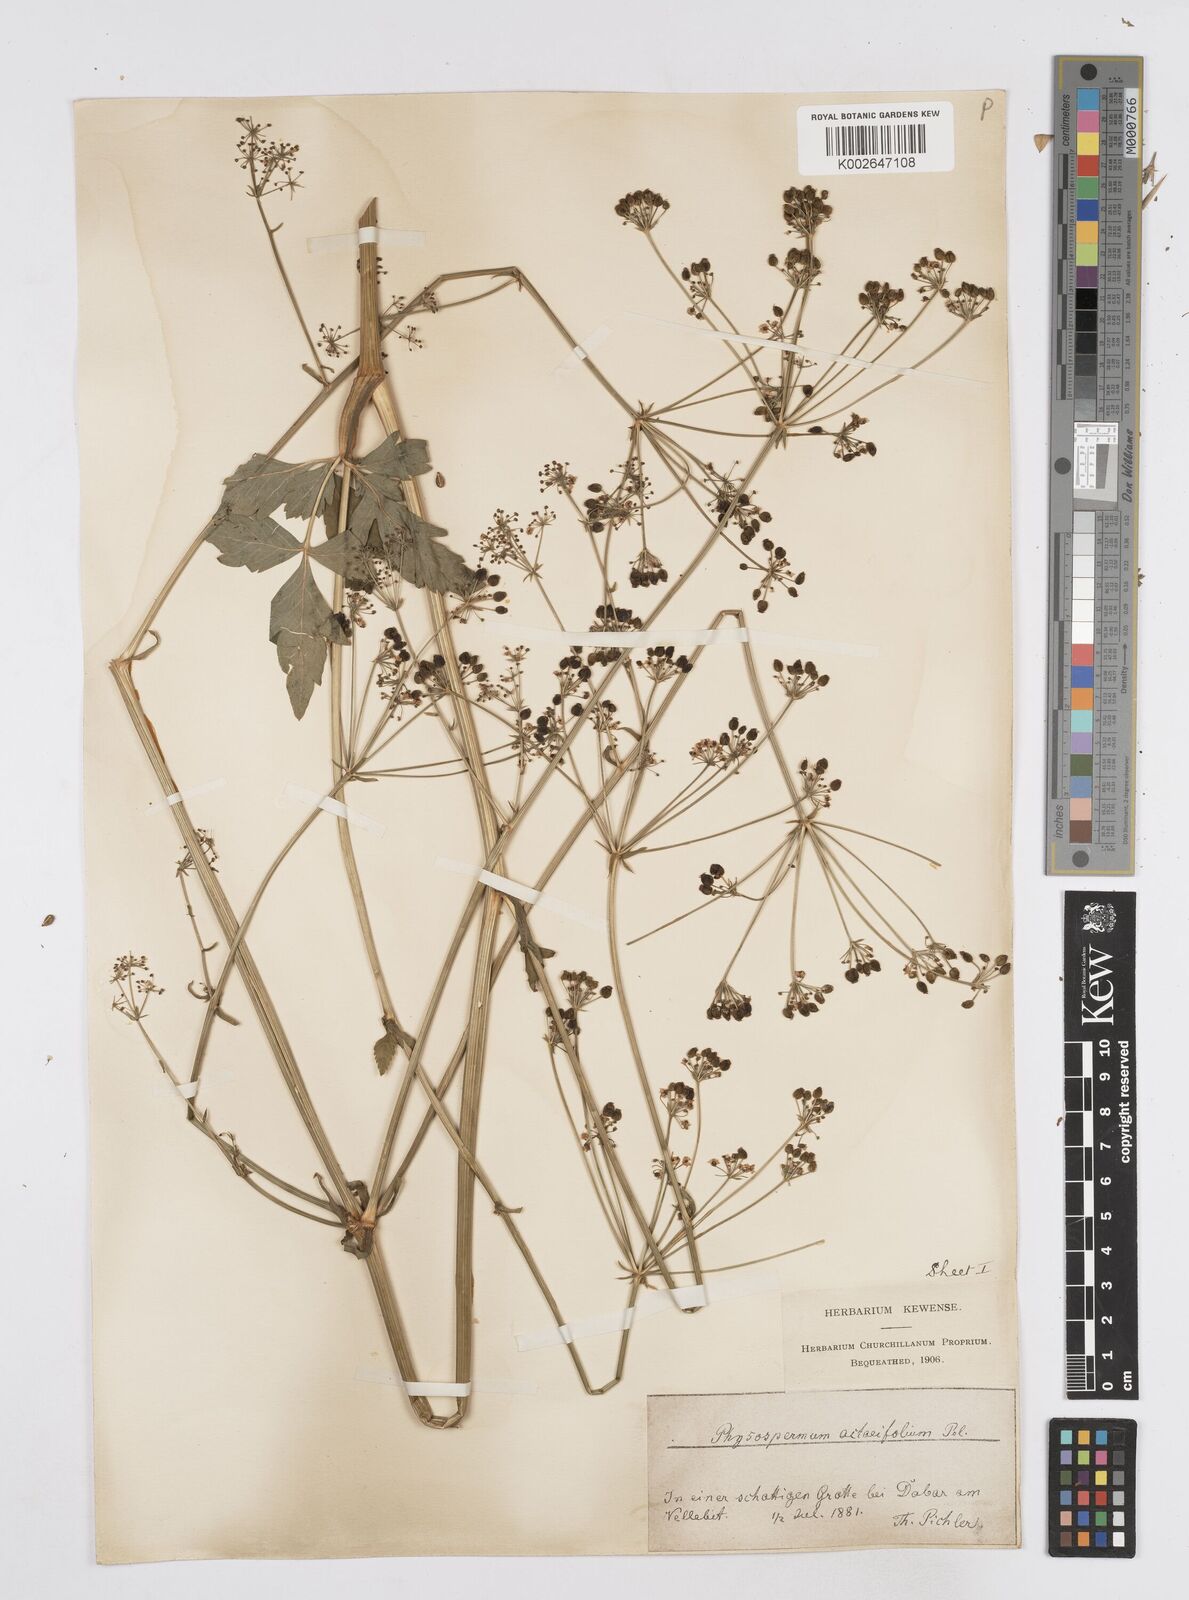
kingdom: Plantae
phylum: Tracheophyta
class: Magnoliopsida
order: Apiales
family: Apiaceae
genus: Physospermum
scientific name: Physospermum verticillatum
